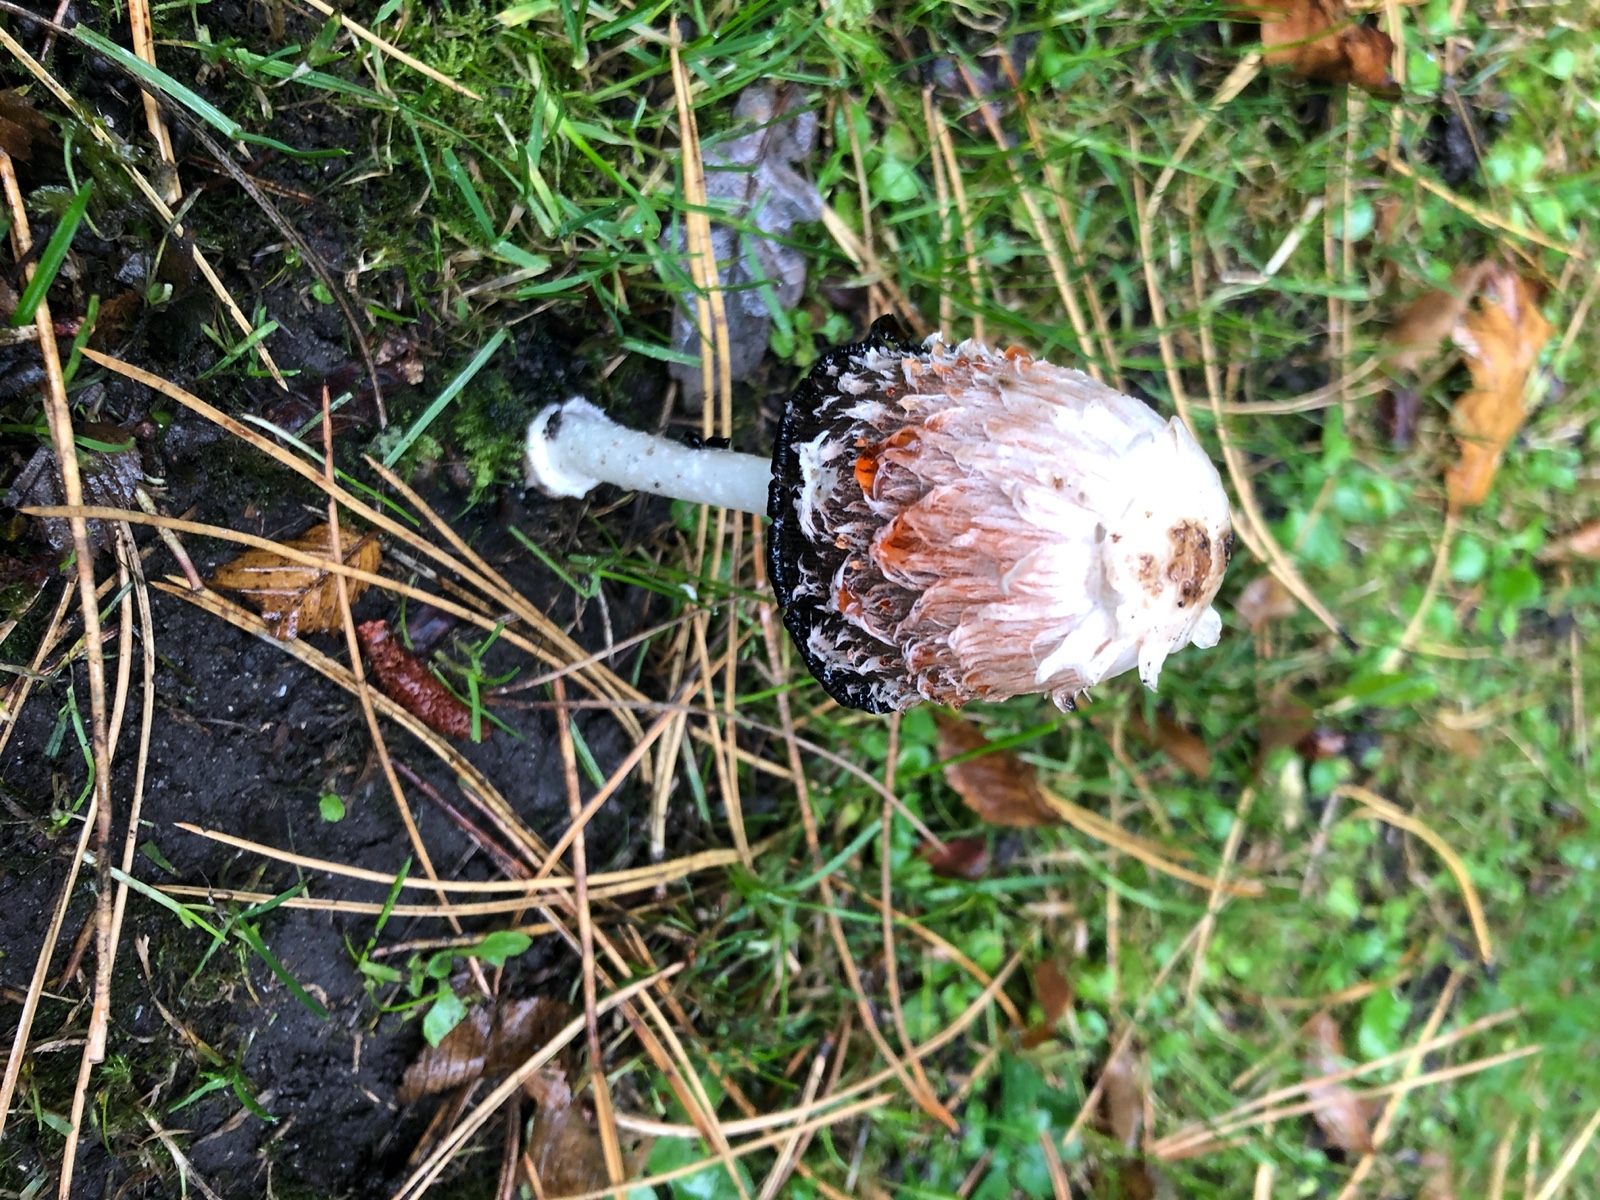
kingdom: Fungi
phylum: Basidiomycota
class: Agaricomycetes
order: Agaricales
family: Agaricaceae
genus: Coprinus
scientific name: Coprinus comatus
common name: stor parykhat
